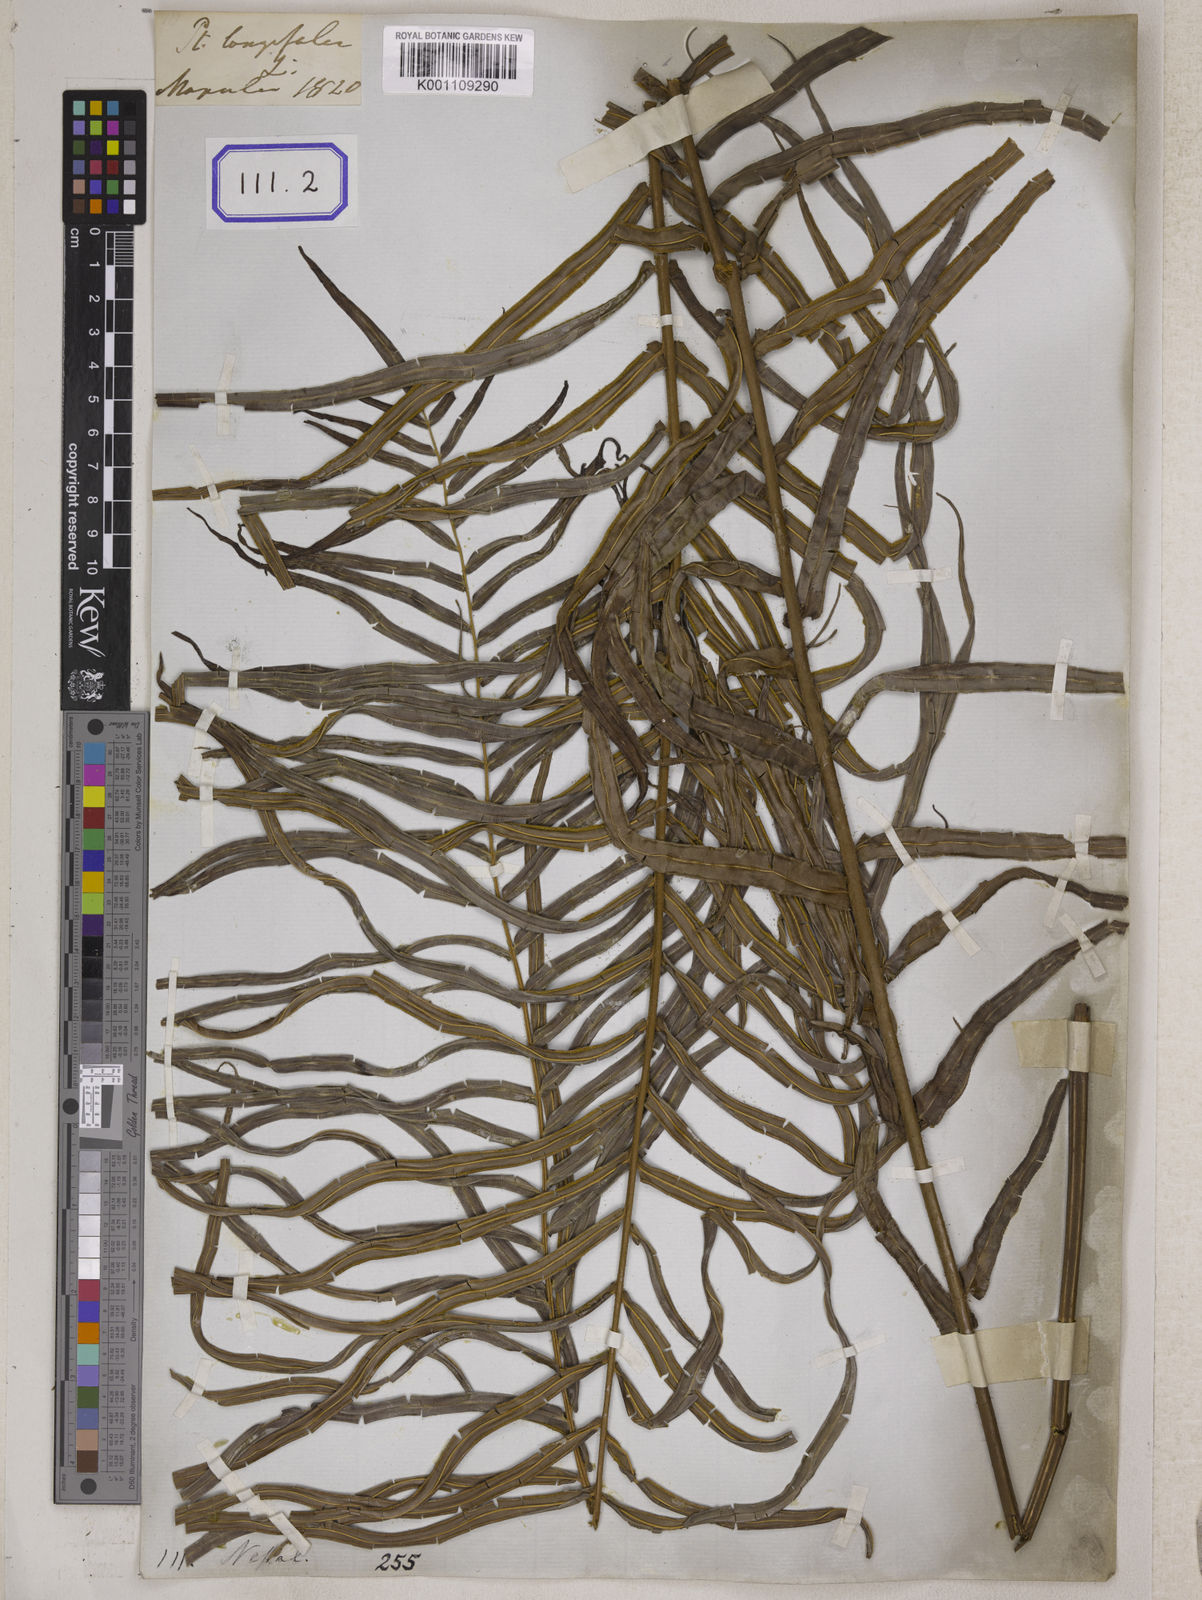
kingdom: Plantae
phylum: Tracheophyta
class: Polypodiopsida
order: Polypodiales
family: Pteridaceae
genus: Pteris
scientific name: Pteris longifolia
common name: Longleaf brake
